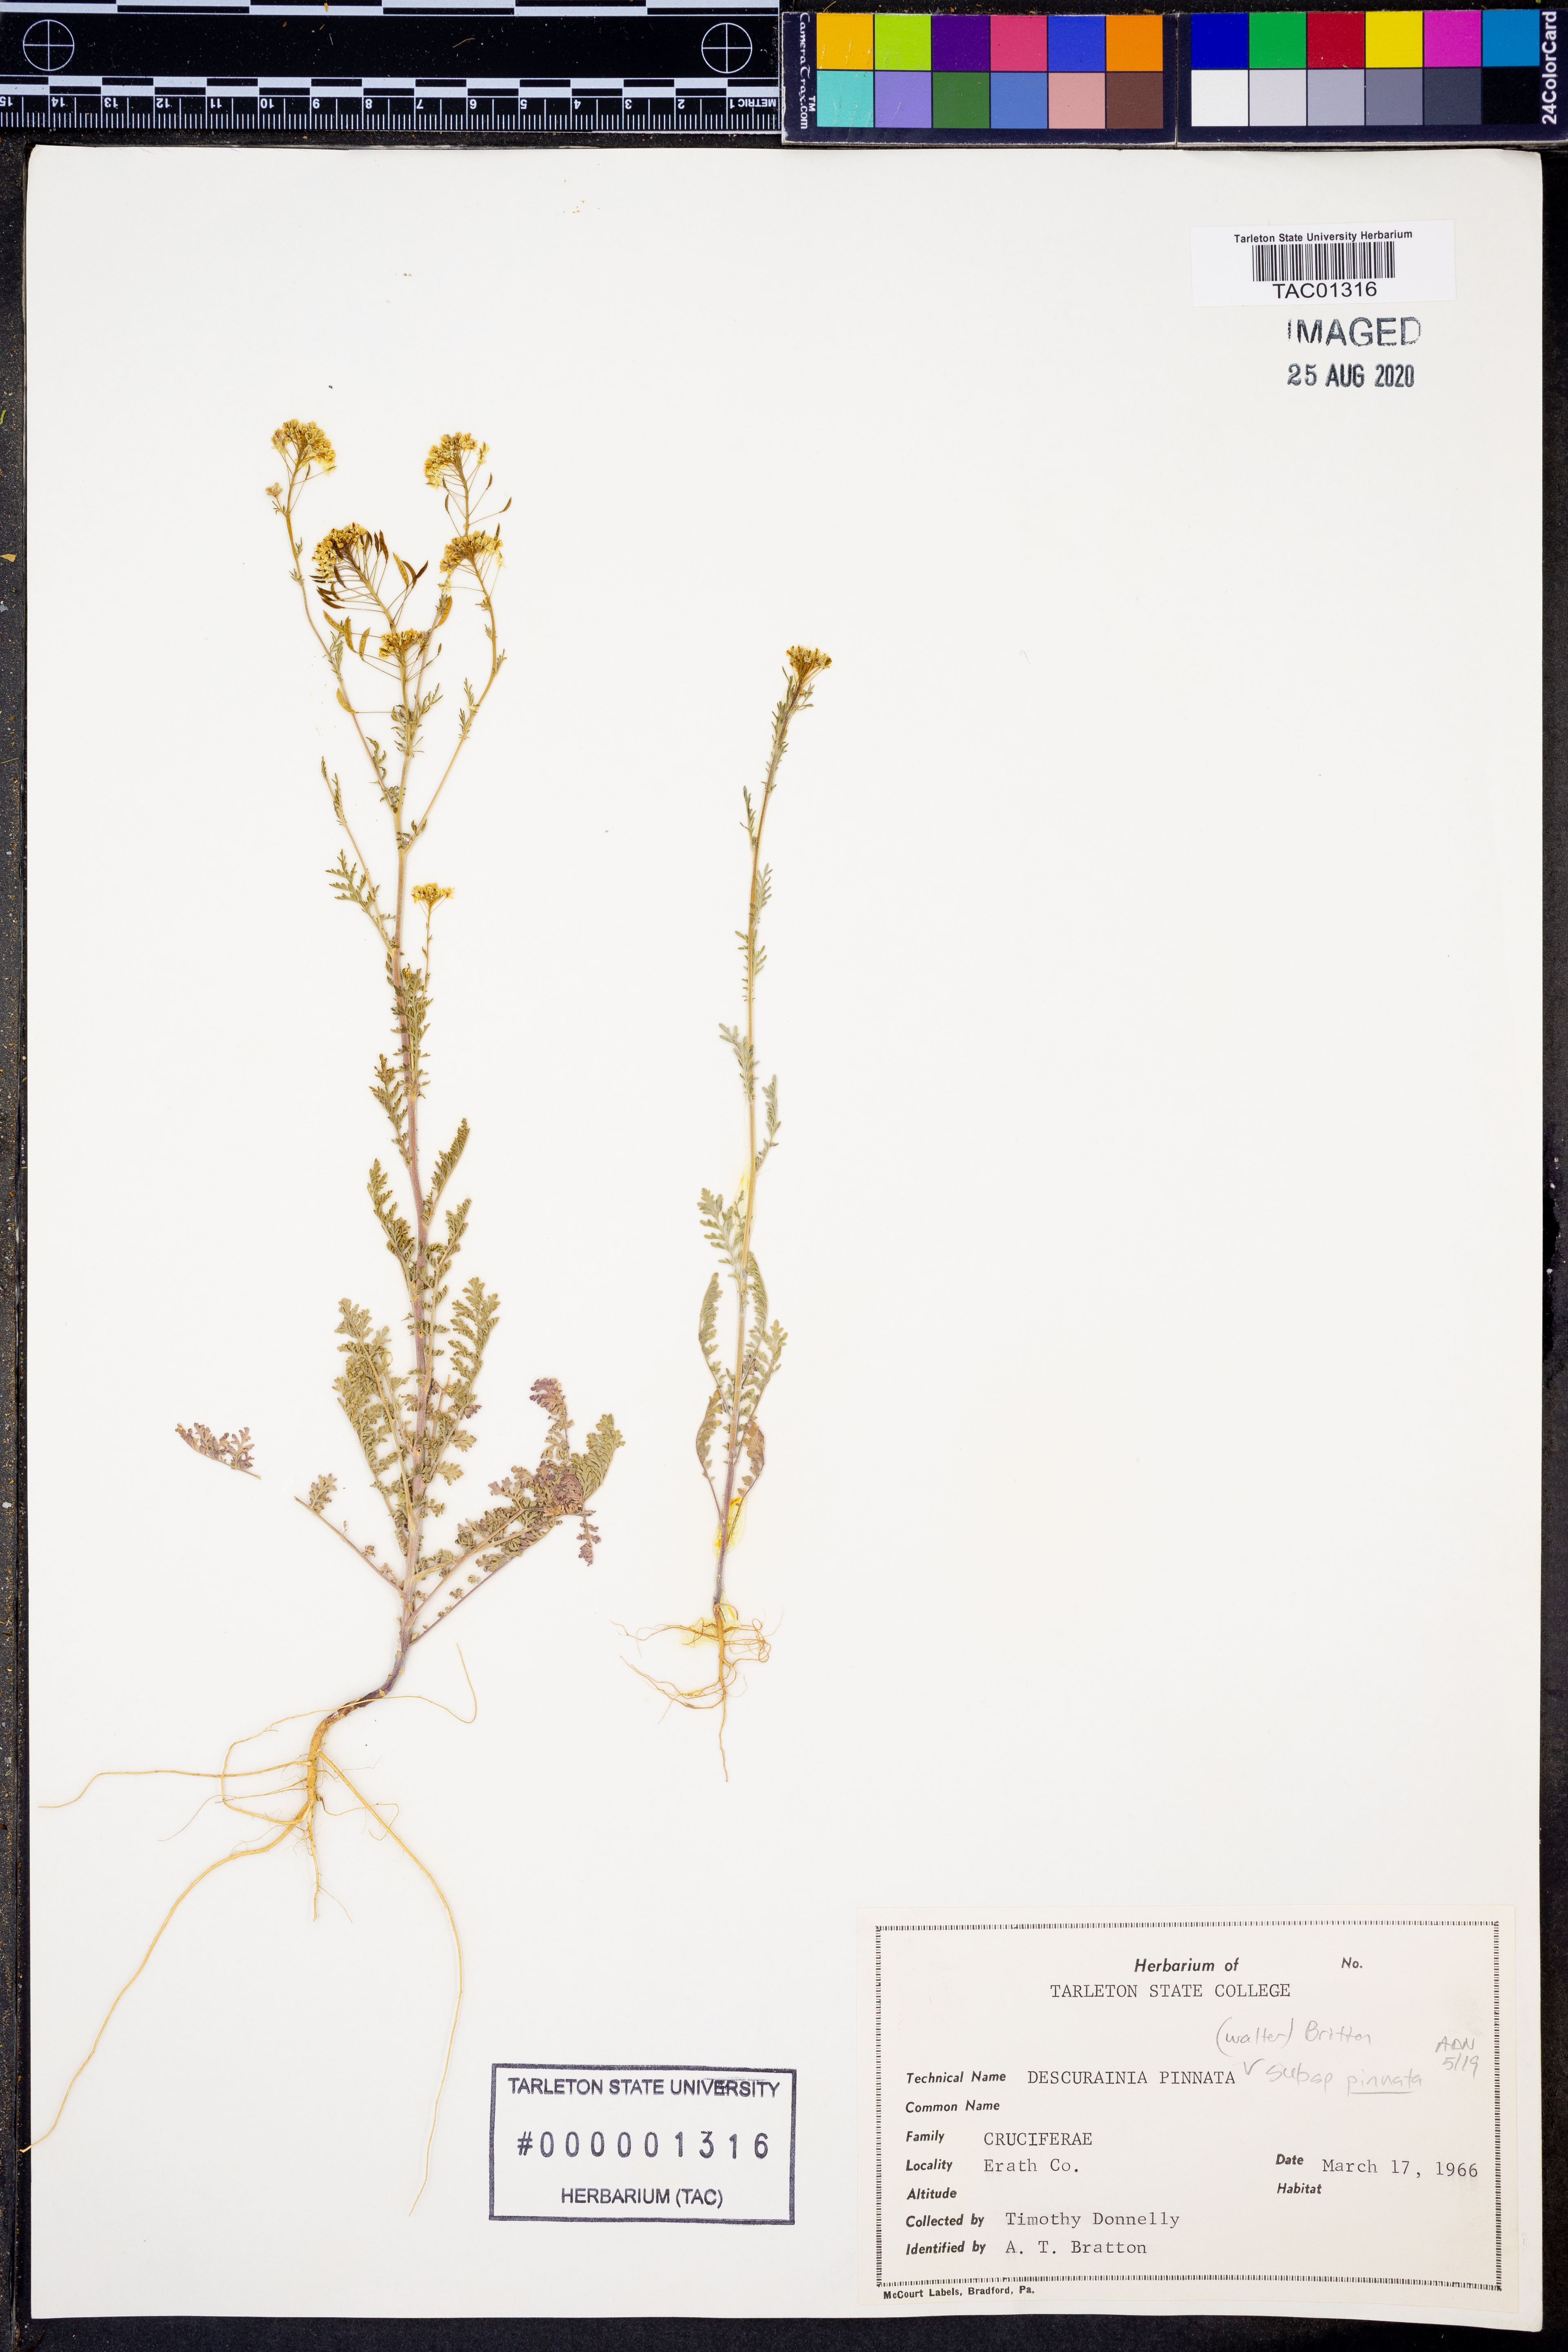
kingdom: Plantae
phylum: Tracheophyta
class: Magnoliopsida
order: Brassicales
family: Brassicaceae
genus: Descurainia
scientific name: Descurainia pinnata
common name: Western tansy mustard
